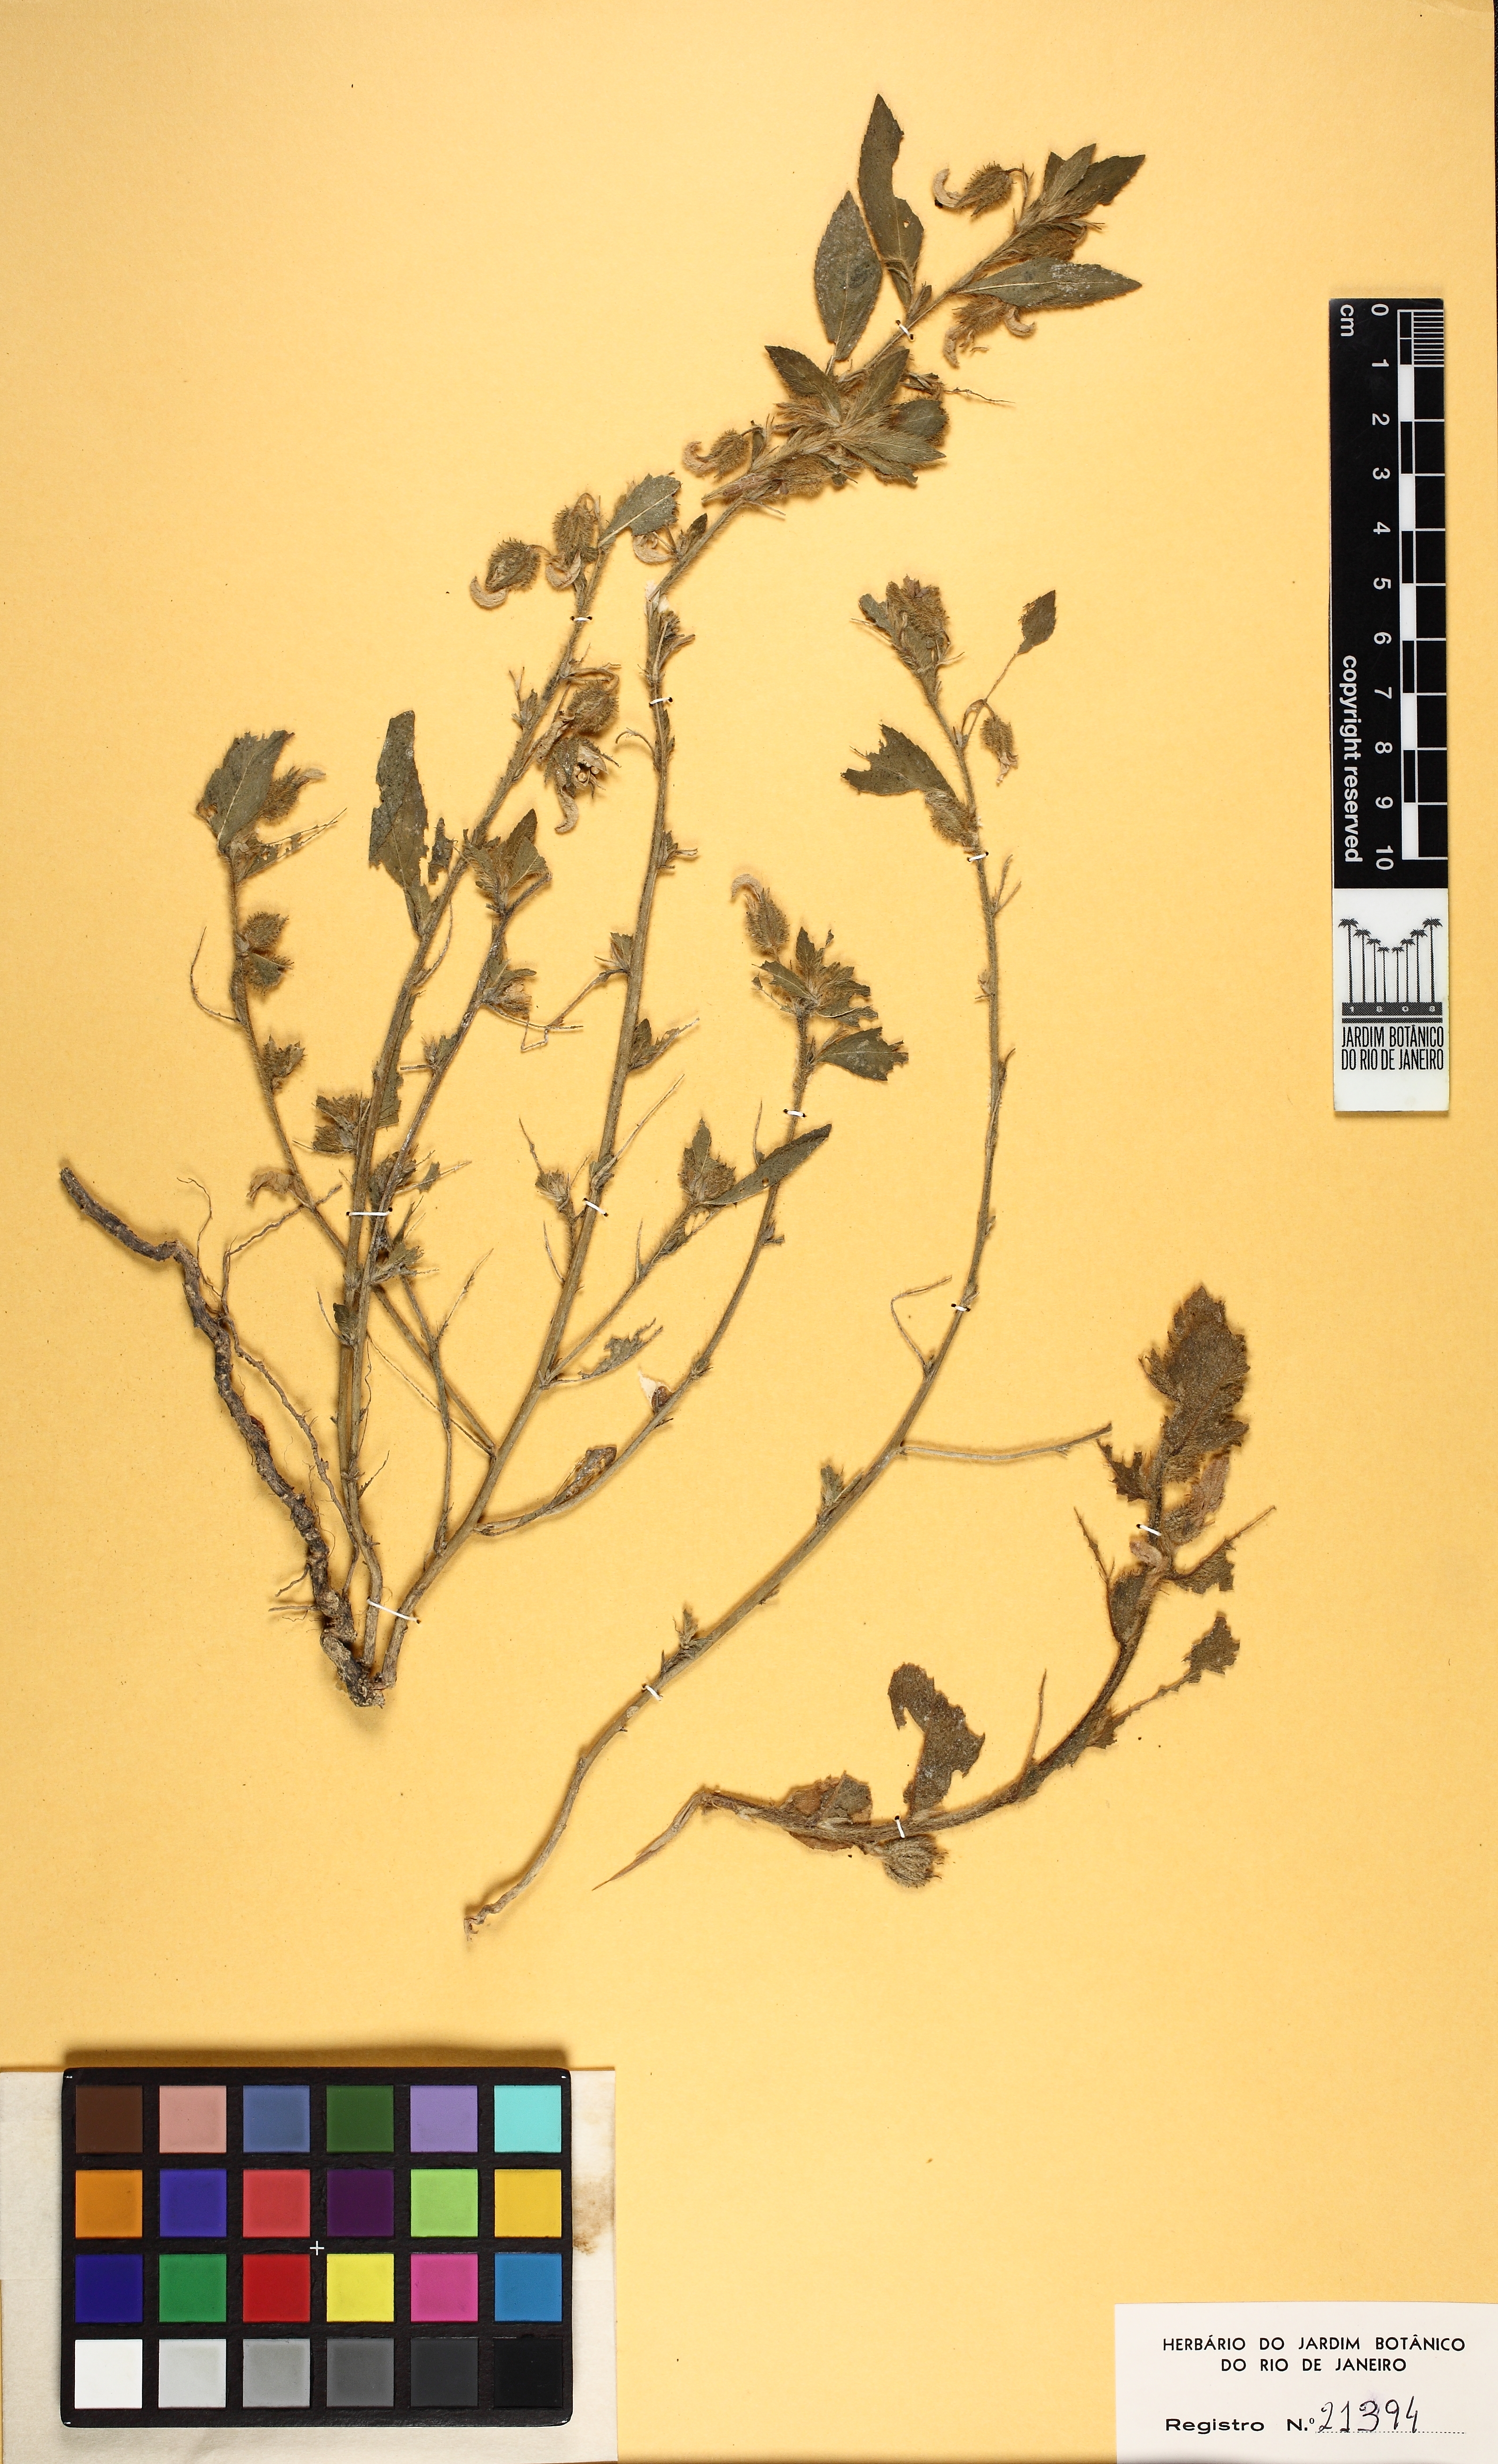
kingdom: Plantae
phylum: Tracheophyta
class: Magnoliopsida
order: Malpighiales
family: Violaceae
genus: Pombalia
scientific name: Pombalia calceolaria
